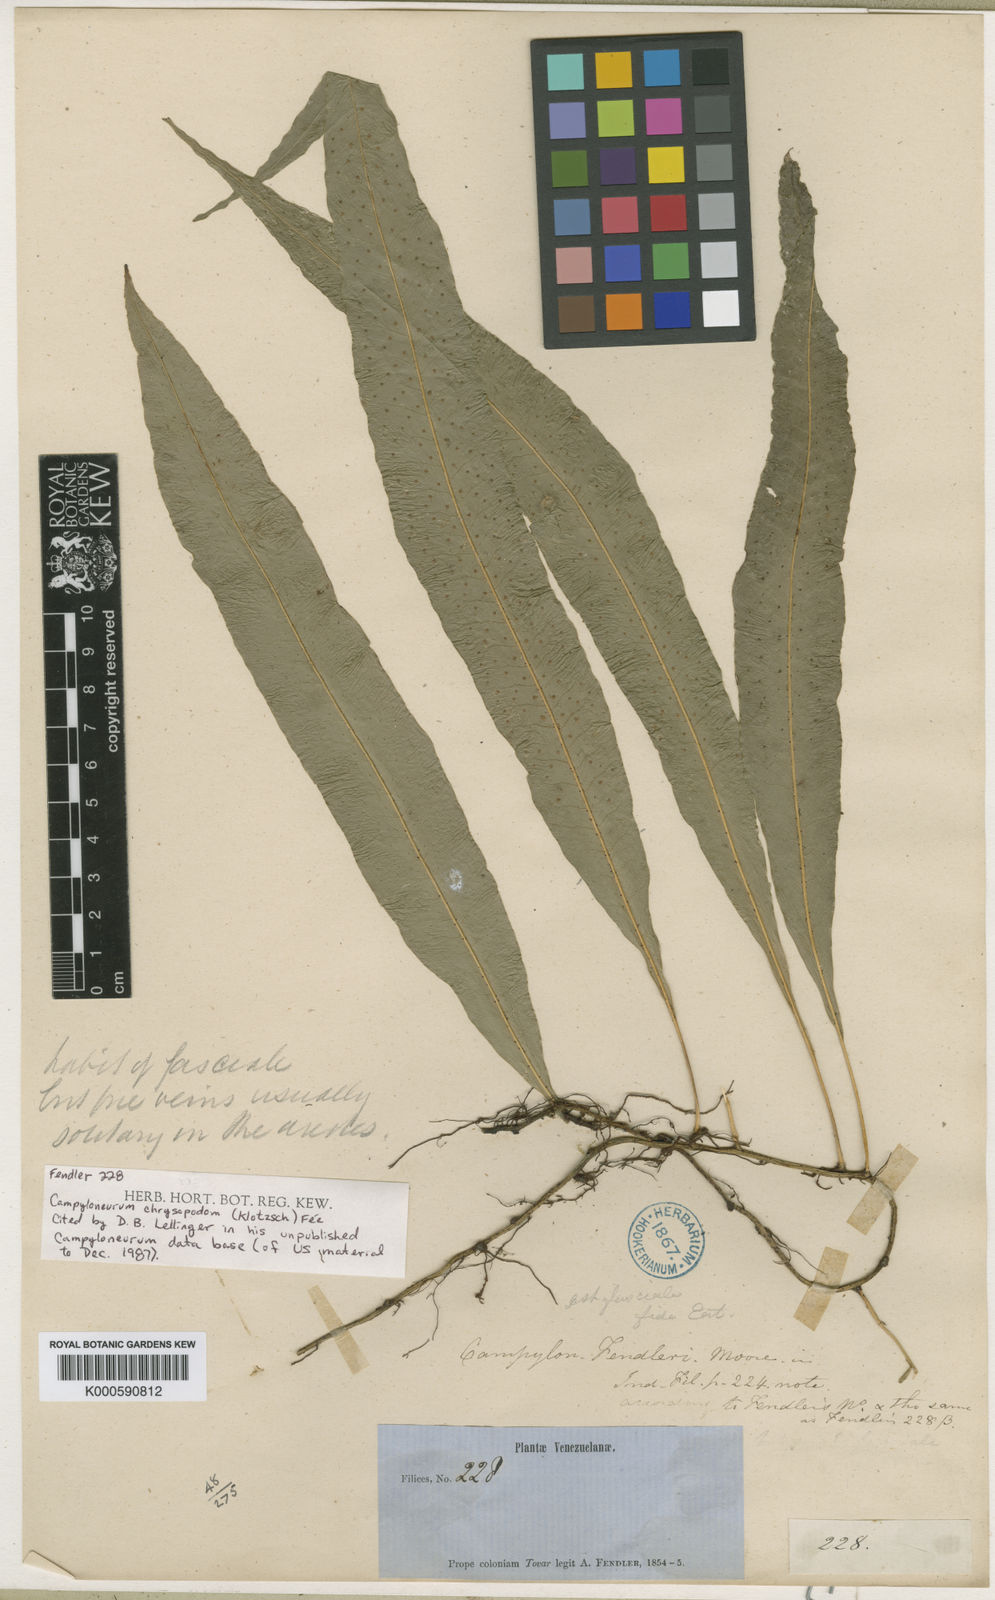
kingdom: Plantae
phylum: Tracheophyta
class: Polypodiopsida
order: Polypodiales
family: Polypodiaceae
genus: Campyloneurum
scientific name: Campyloneurum
